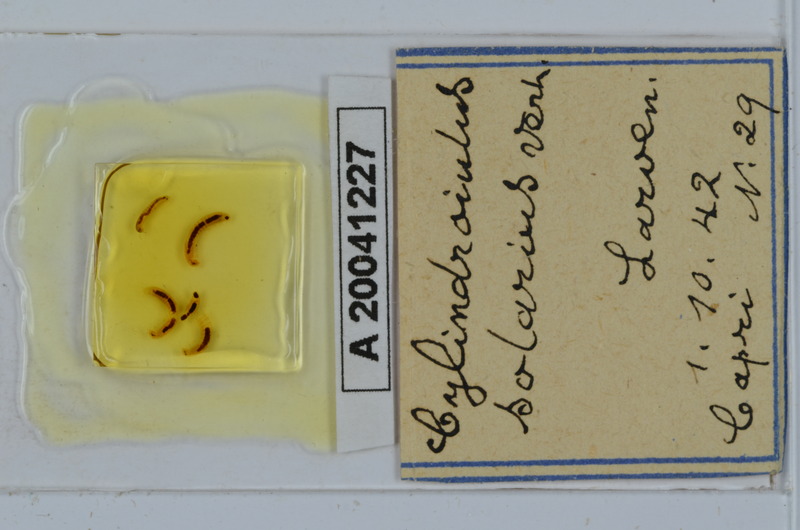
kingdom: Animalia
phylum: Arthropoda
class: Diplopoda
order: Julida
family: Julidae
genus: Cylindroiulus
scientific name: Cylindroiulus solarius
